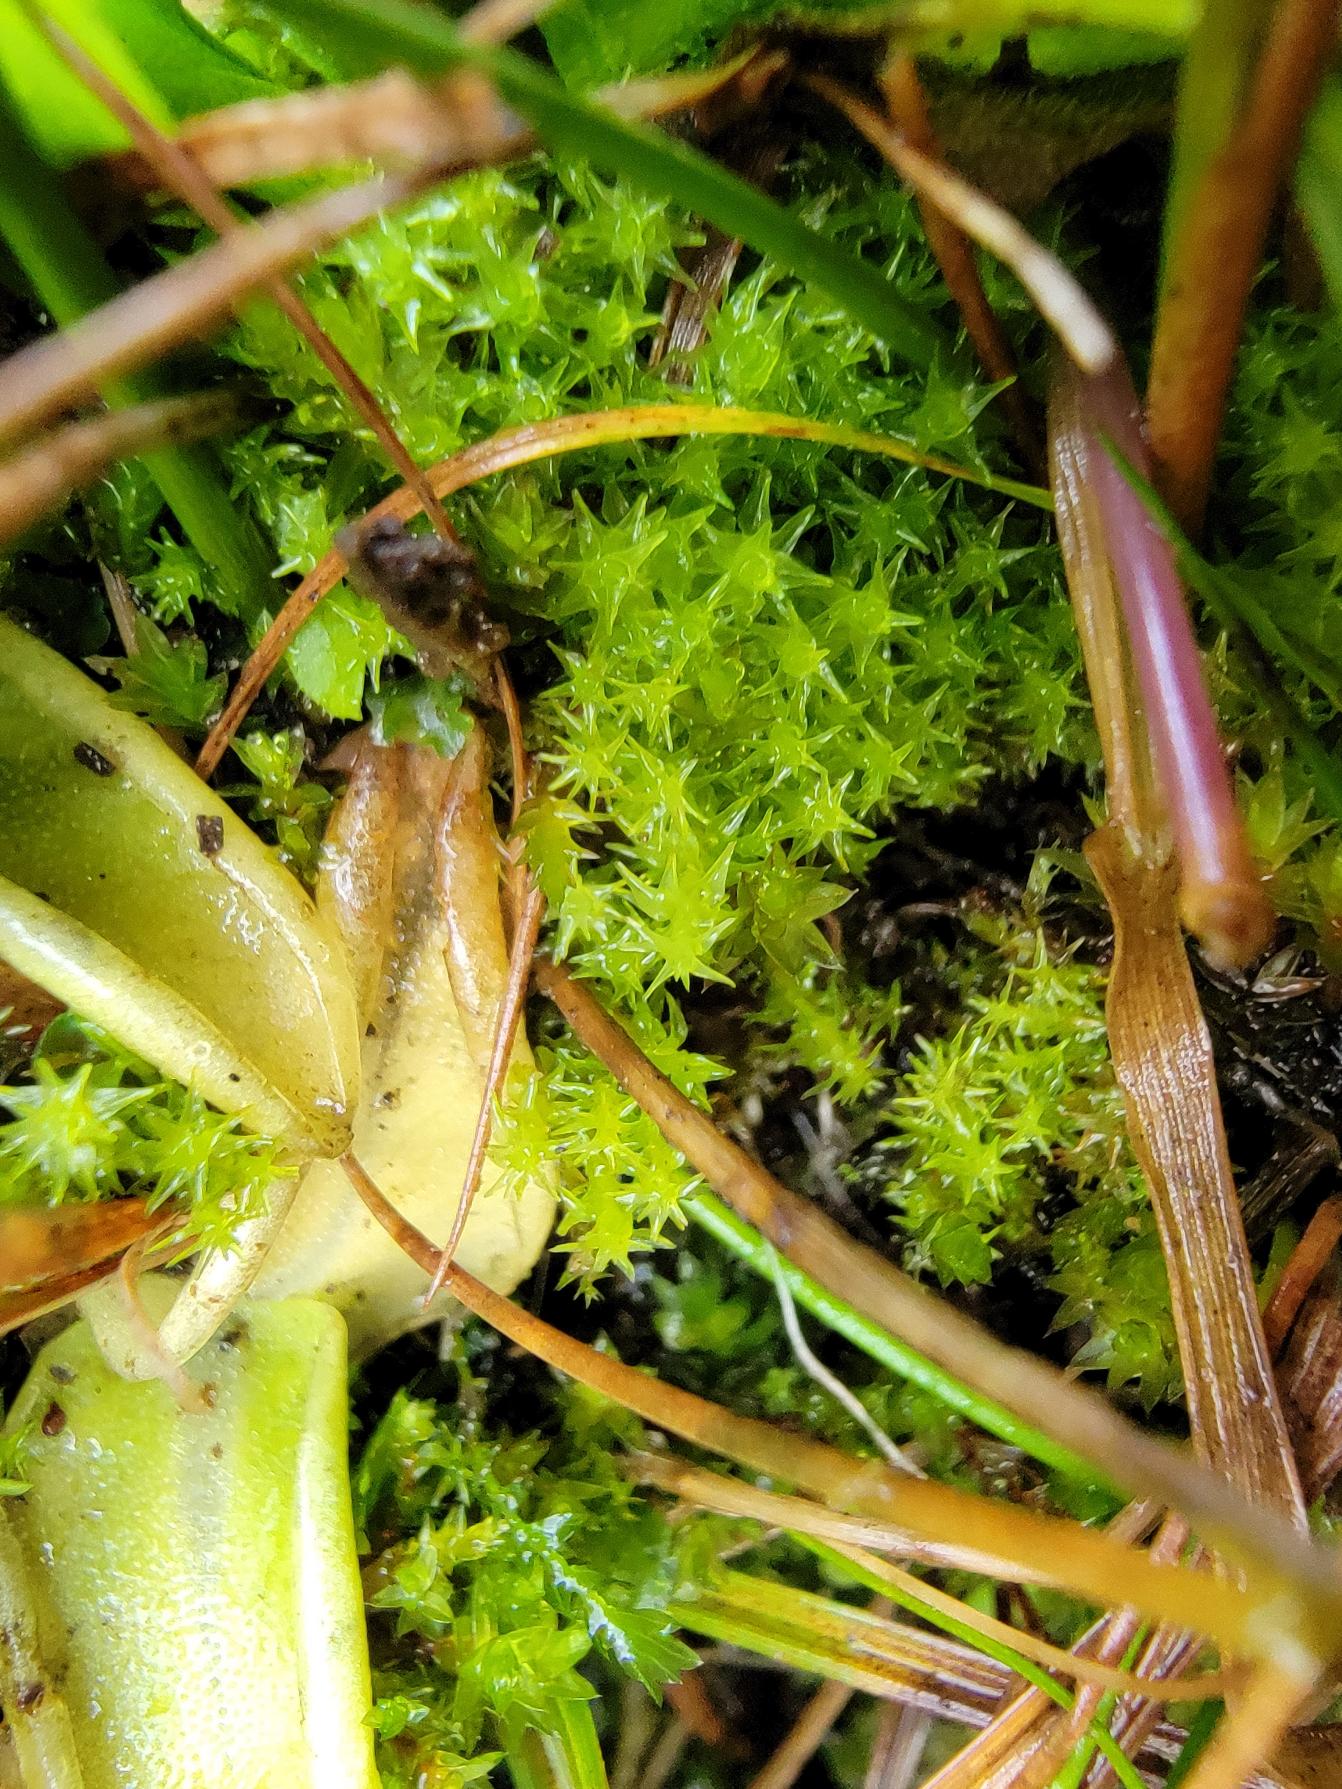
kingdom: Plantae
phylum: Bryophyta
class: Bryopsida
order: Dicranales
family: Aongstroemiaceae
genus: Diobelonella
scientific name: Diobelonella palustris
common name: Kæmpe skævkapsel
